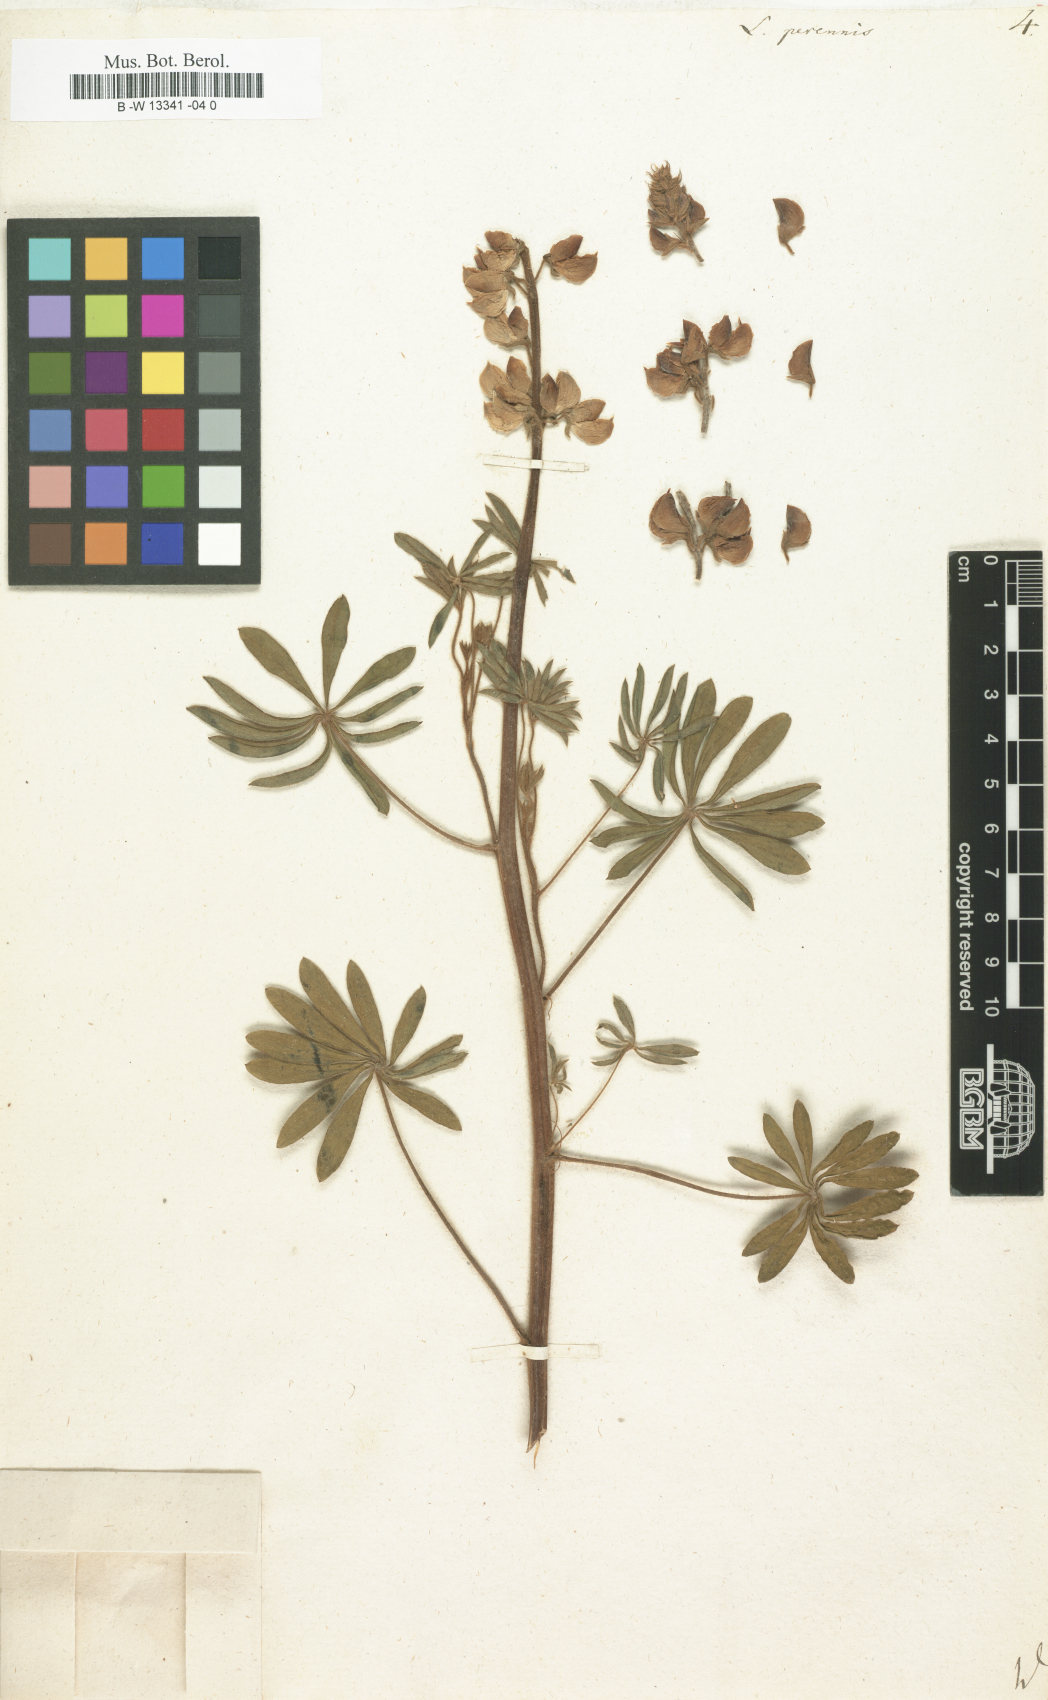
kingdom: Plantae
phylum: Tracheophyta
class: Magnoliopsida
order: Fabales
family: Fabaceae
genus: Lupinus
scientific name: Lupinus perennis
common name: Sundial lupine
